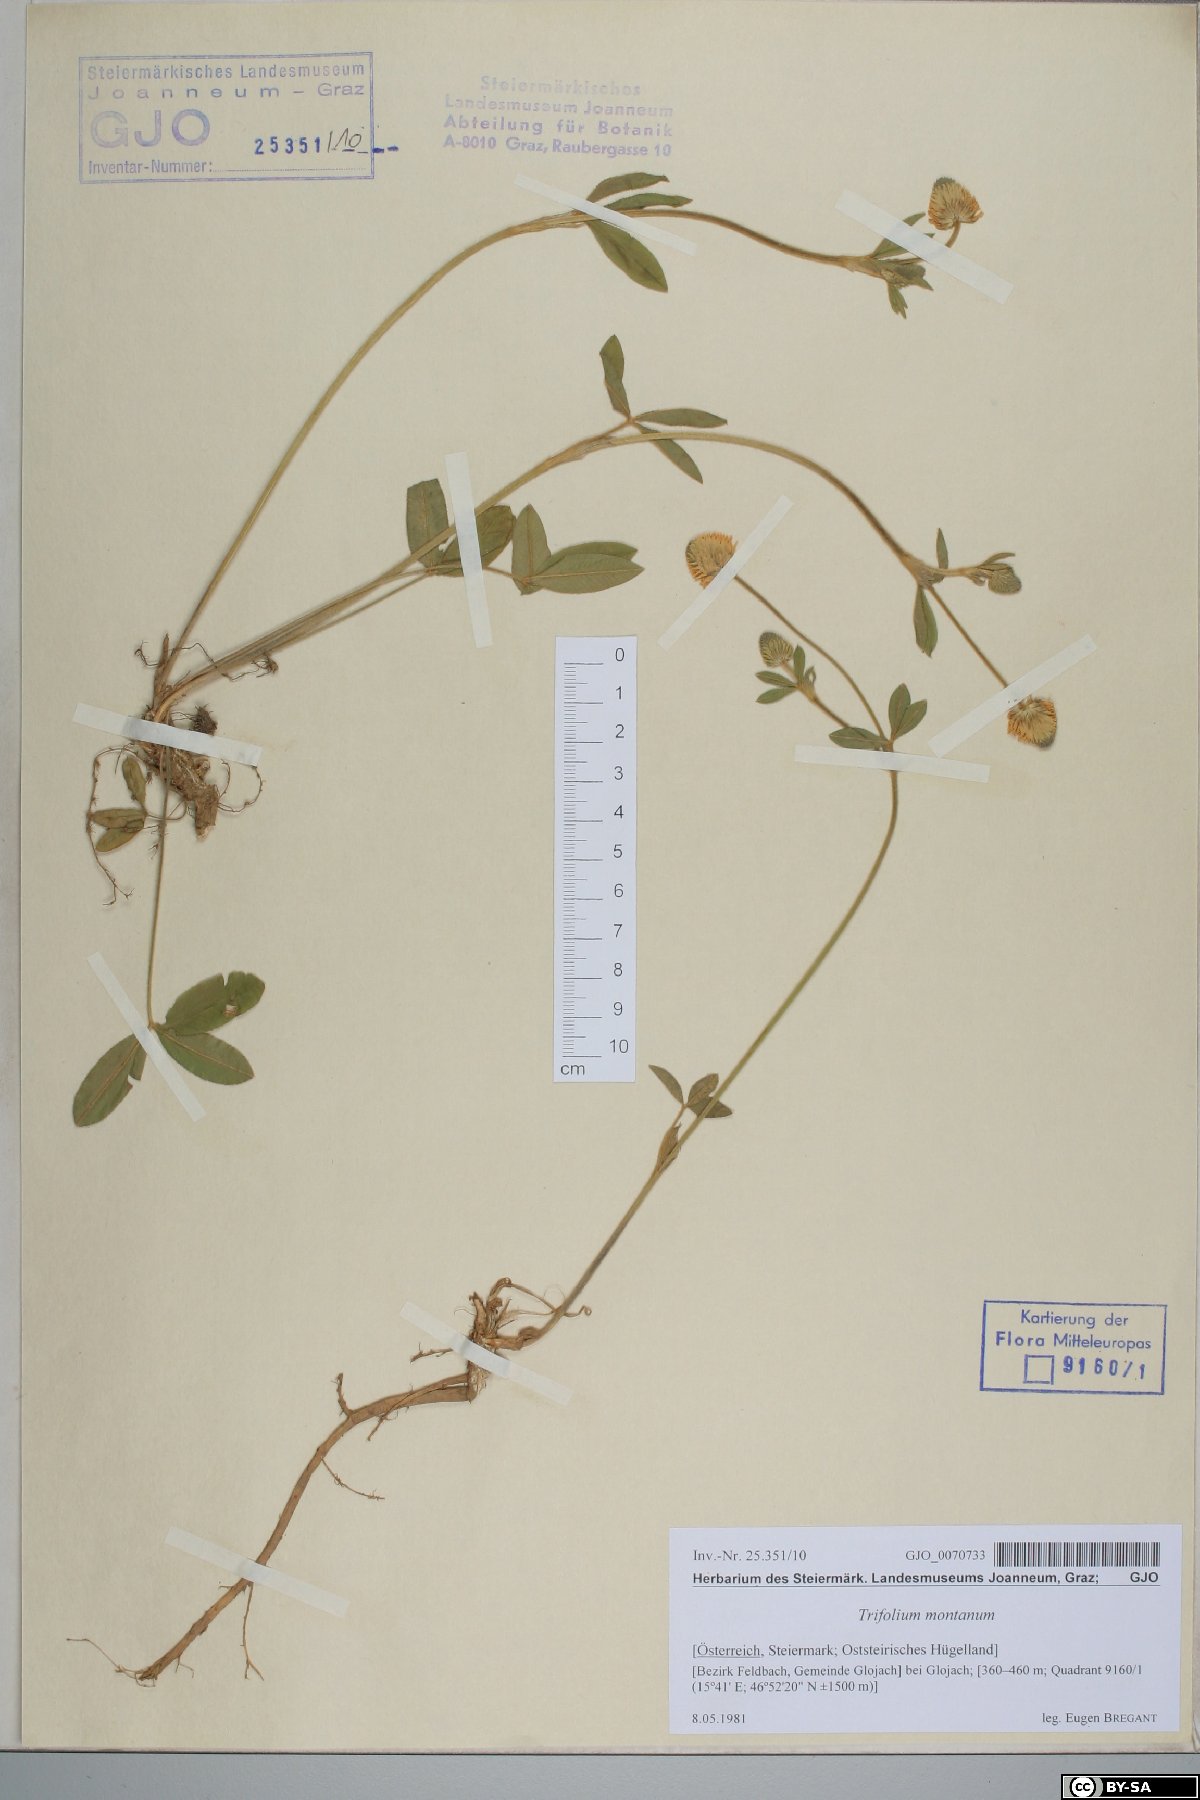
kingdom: Plantae
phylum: Tracheophyta
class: Magnoliopsida
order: Fabales
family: Fabaceae
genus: Trifolium
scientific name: Trifolium montanum
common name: Mountain clover
